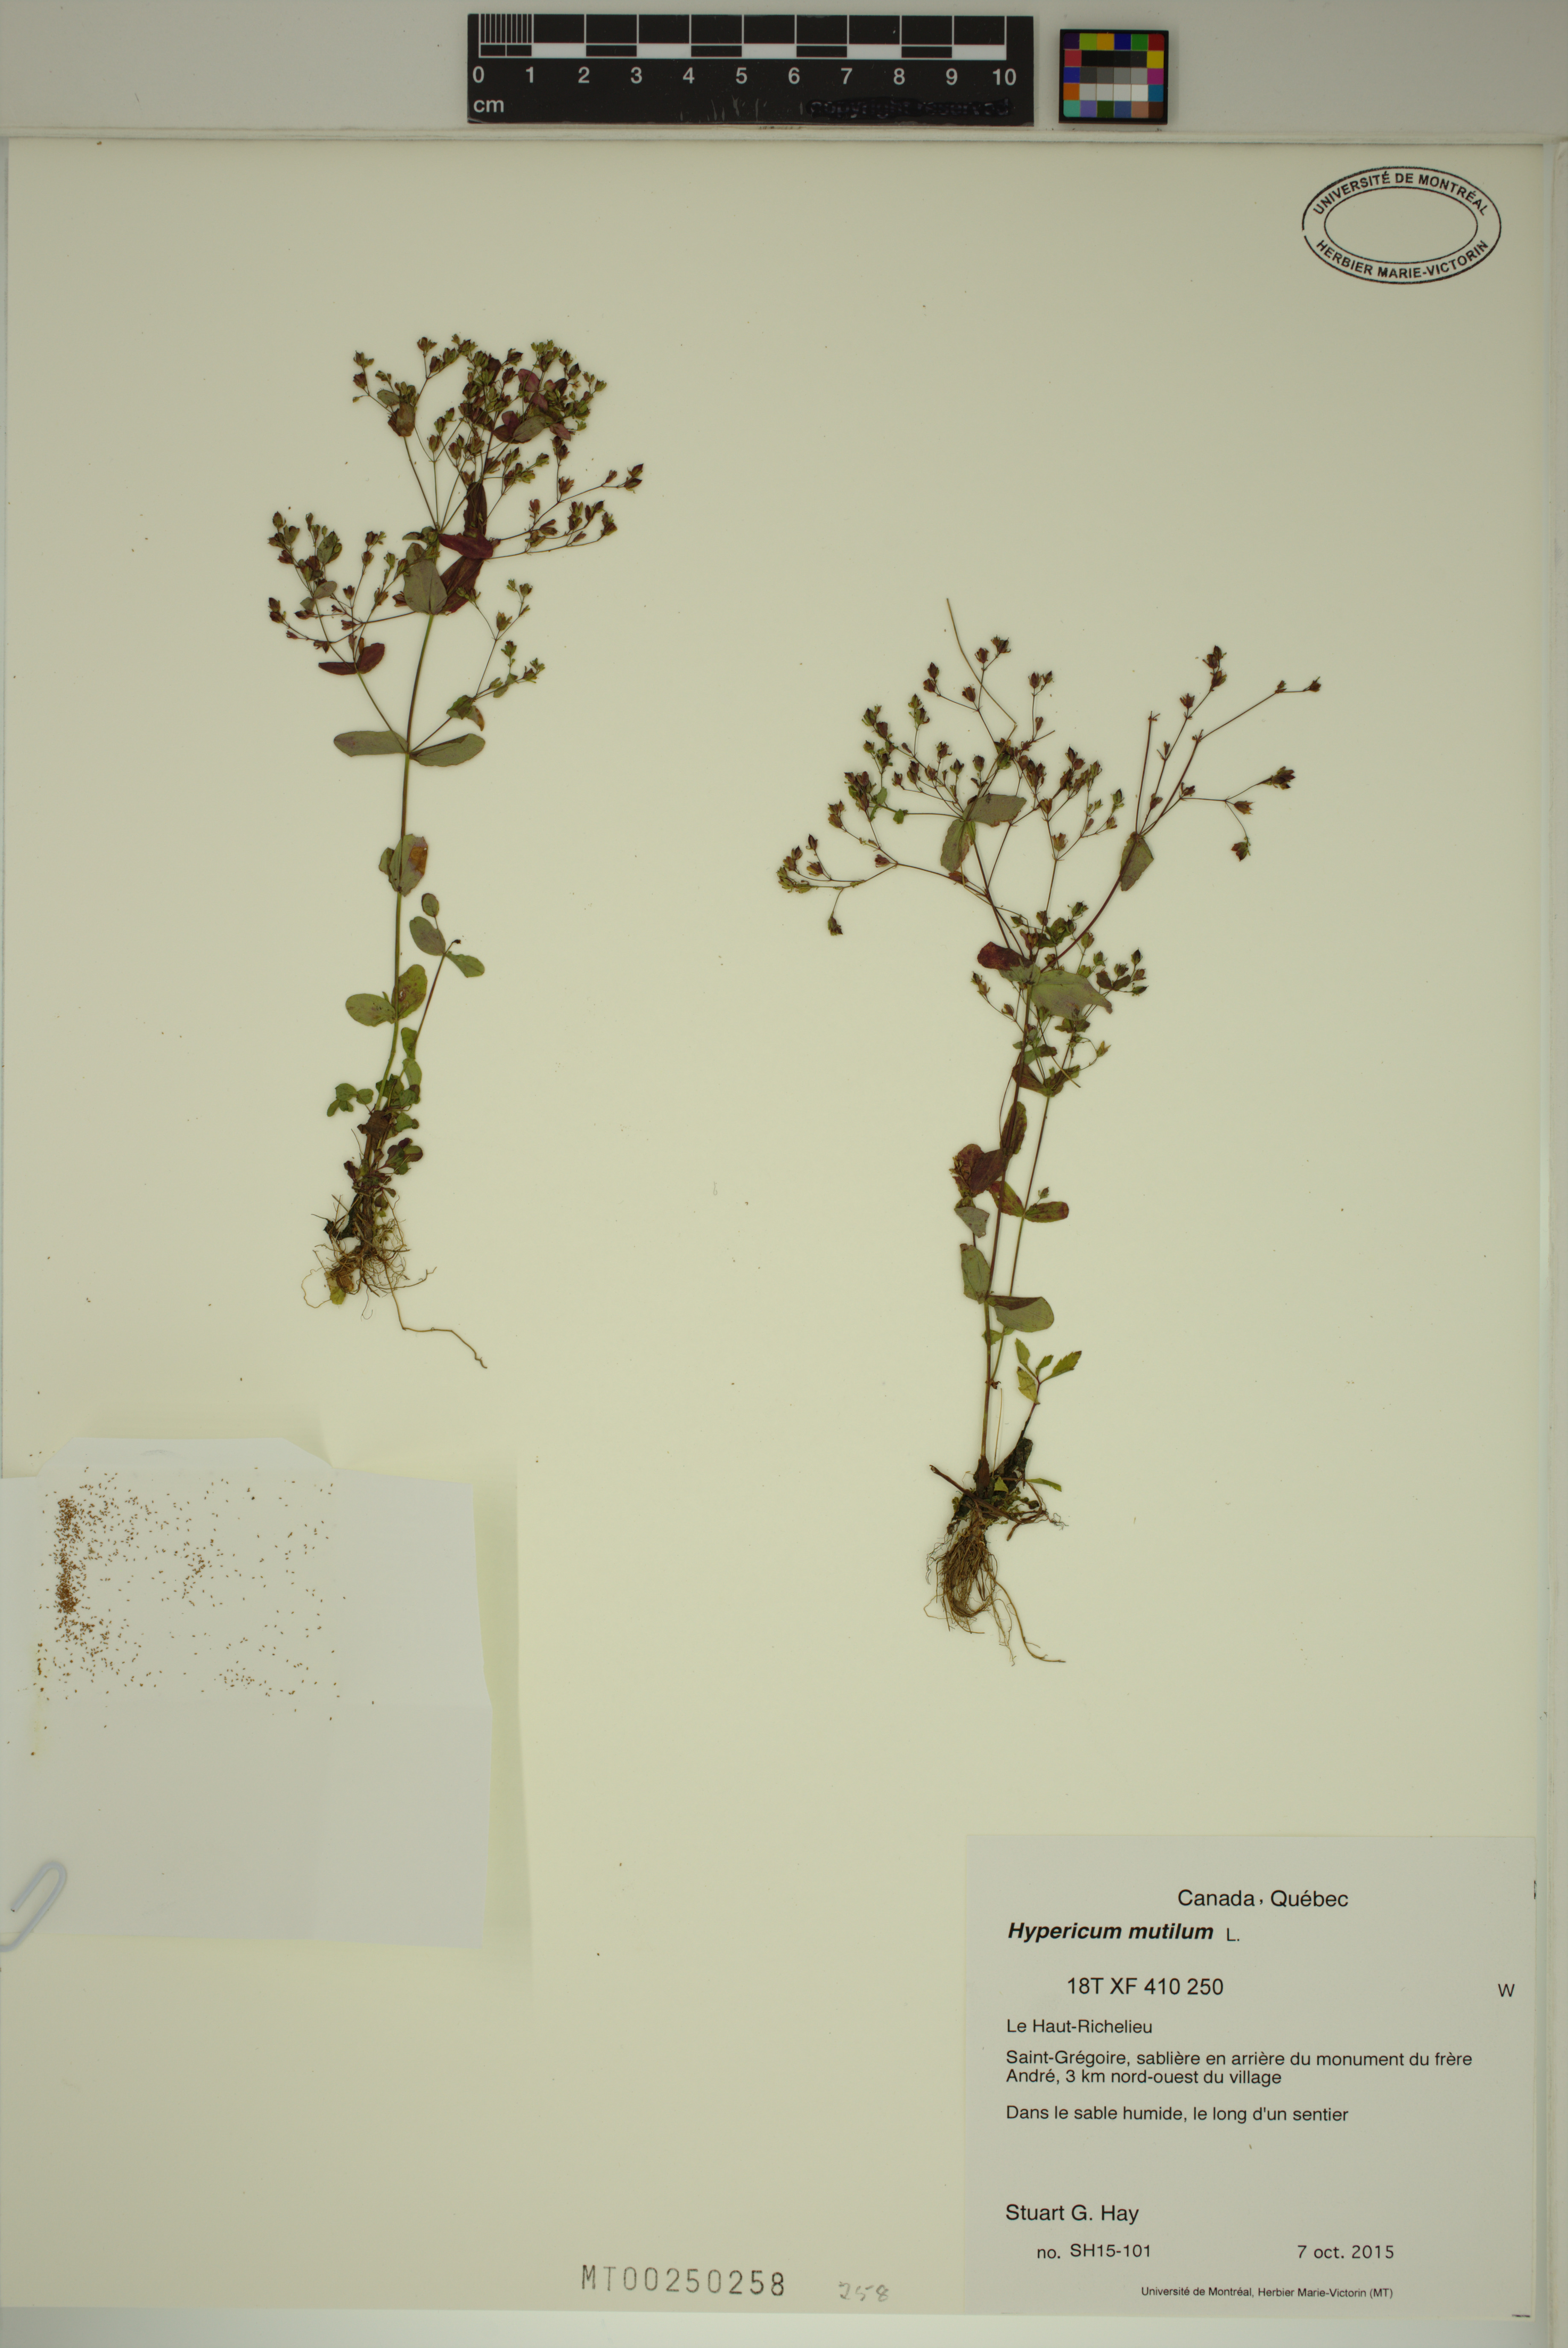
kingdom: Plantae
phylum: Tracheophyta
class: Magnoliopsida
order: Malpighiales
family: Hypericaceae
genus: Hypericum
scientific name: Hypericum mutilum
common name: Dwarf st. john's-wort
